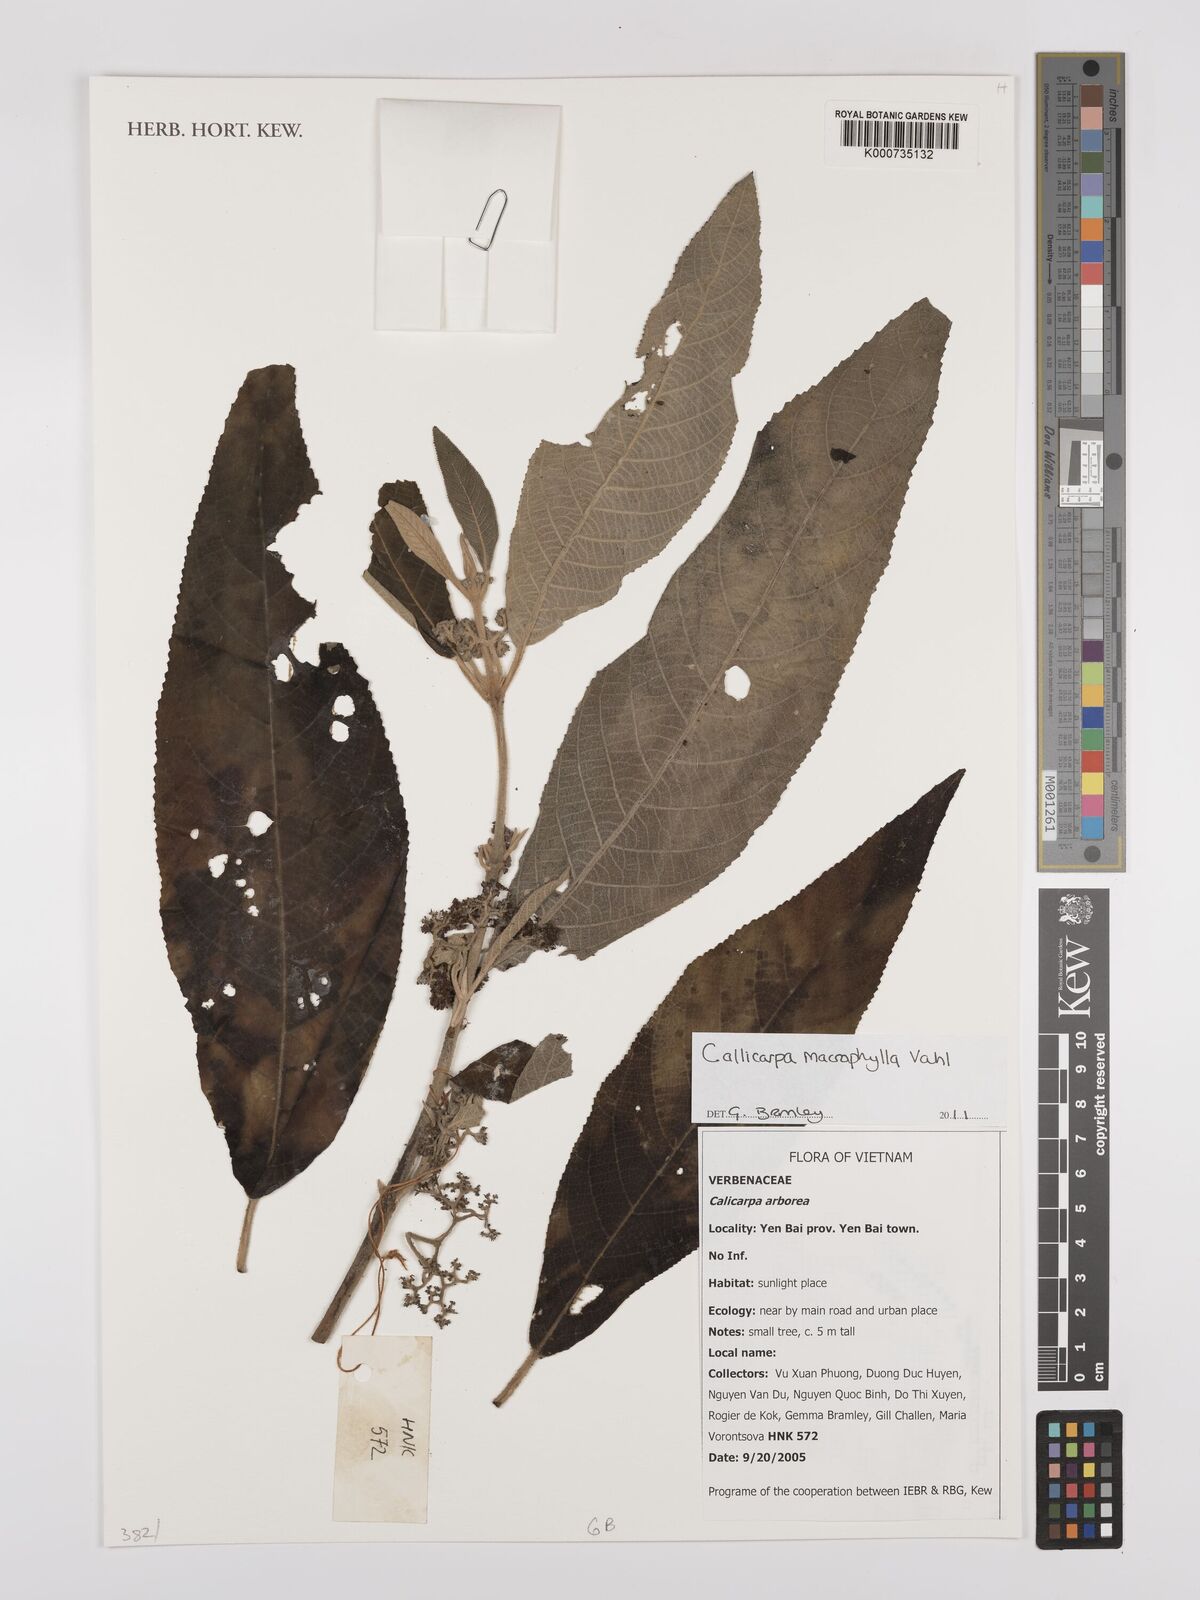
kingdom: Plantae
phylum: Tracheophyta
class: Magnoliopsida
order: Lamiales
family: Lamiaceae
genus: Callicarpa
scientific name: Callicarpa macrophylla
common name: Urn-fruit beauty-berry
